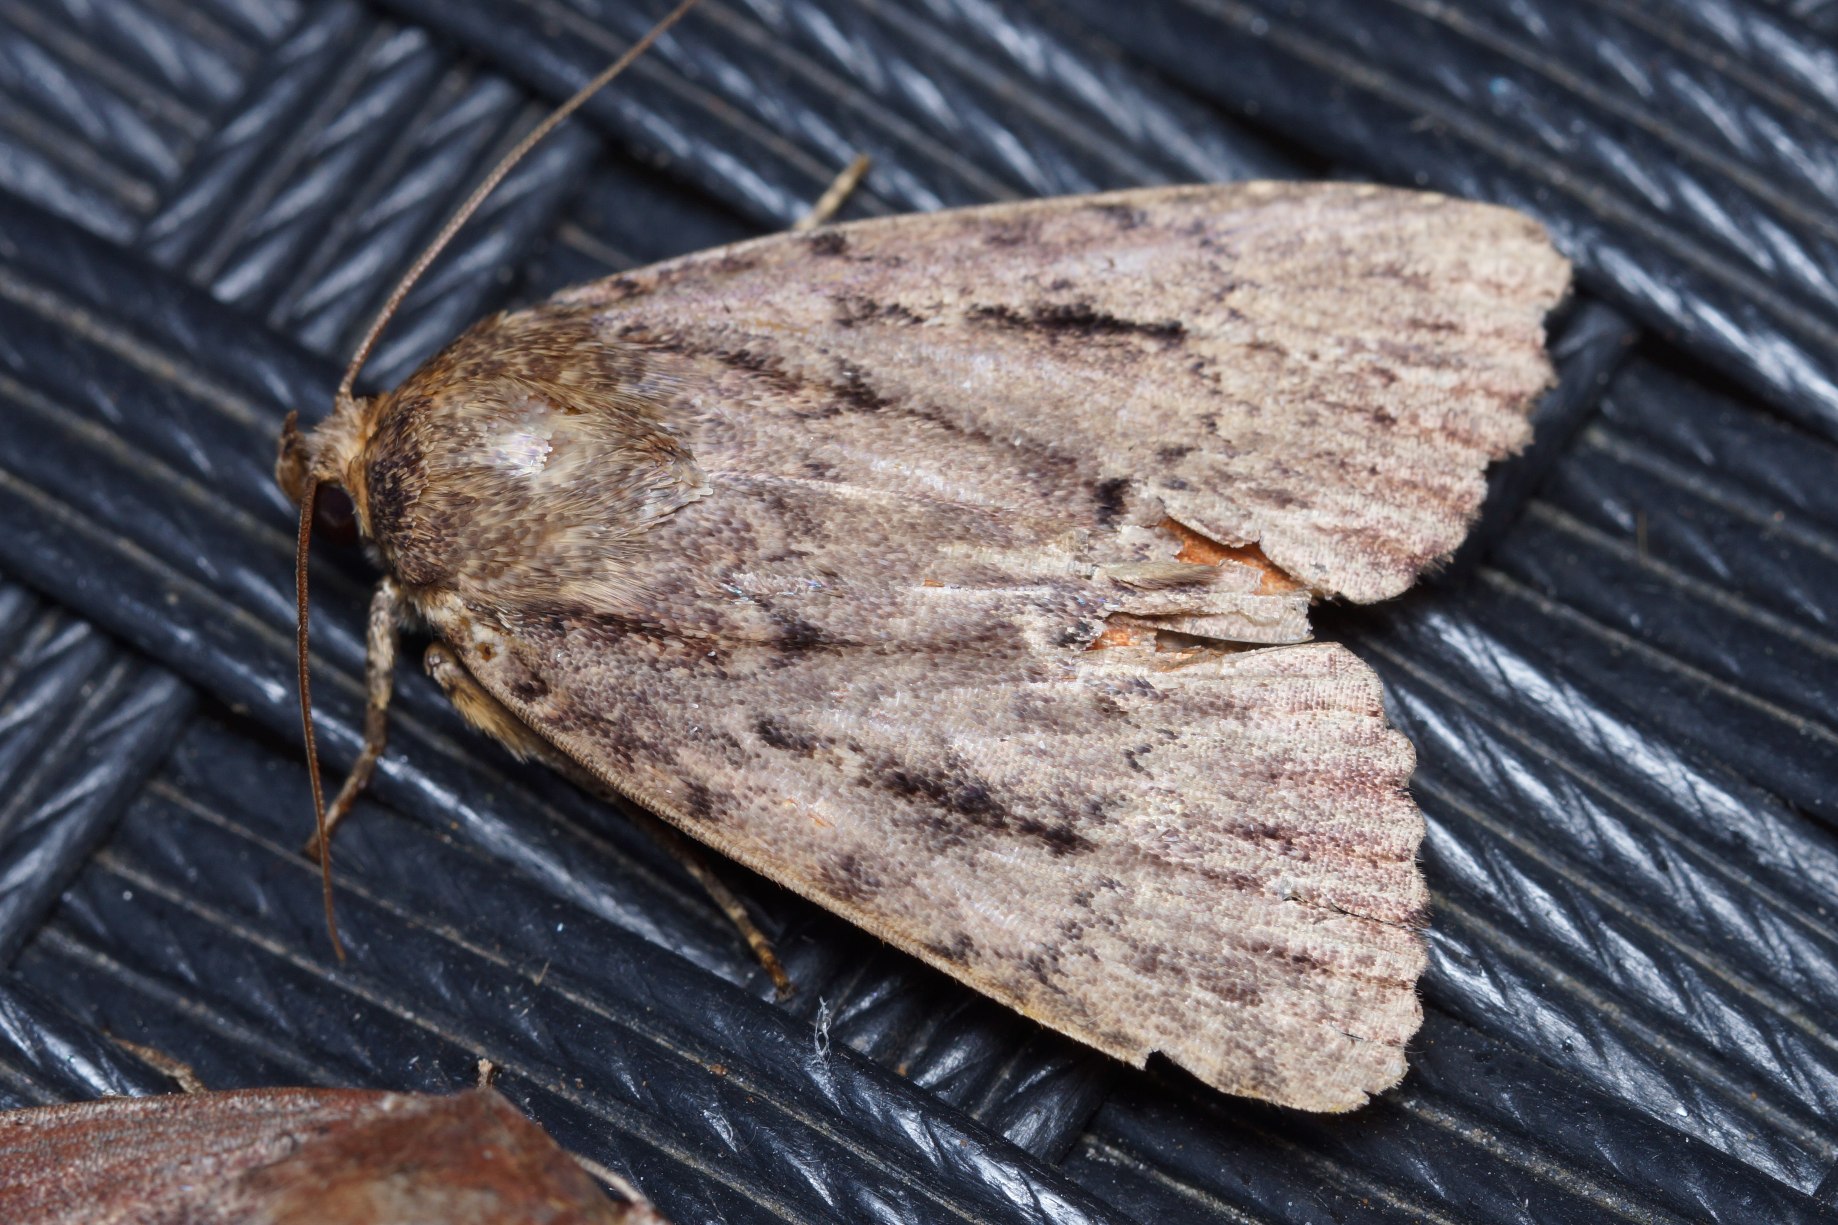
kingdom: Animalia
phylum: Arthropoda
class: Insecta
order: Lepidoptera
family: Noctuidae
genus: Amphipyra
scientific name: Amphipyra pyramidea
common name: Pyramideugle
